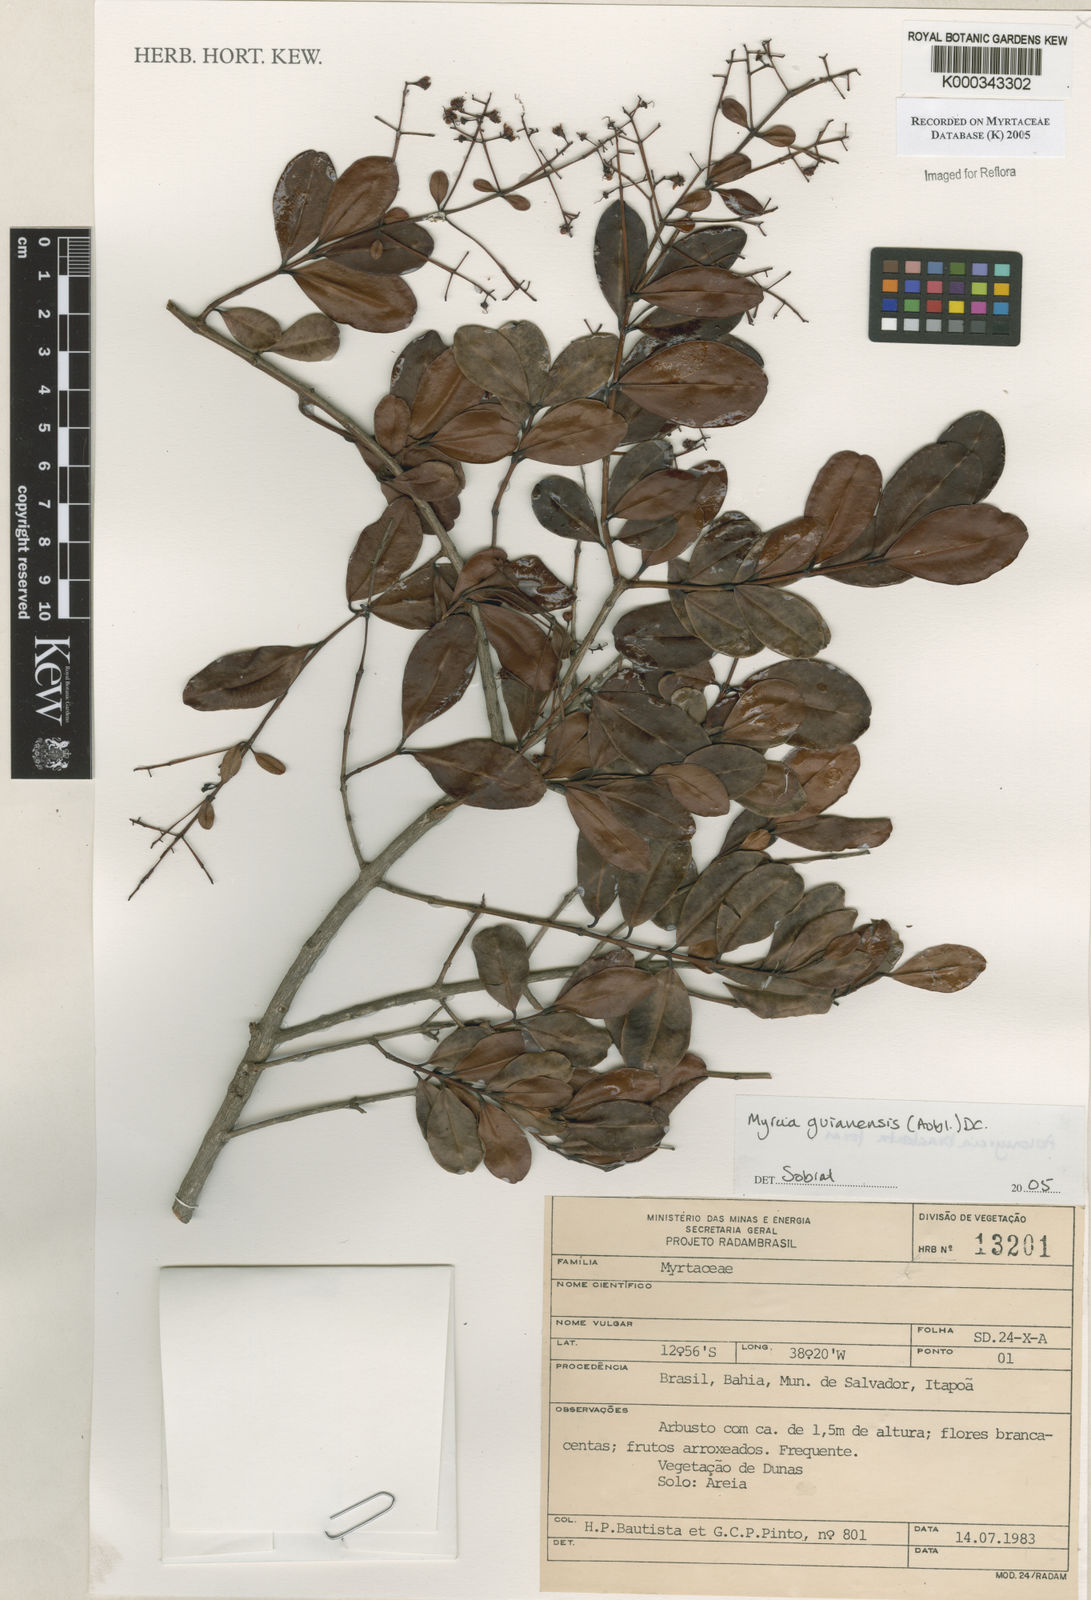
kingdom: Plantae
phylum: Tracheophyta
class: Magnoliopsida
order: Myrtales
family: Myrtaceae
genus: Myrcia
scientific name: Myrcia guianensis
